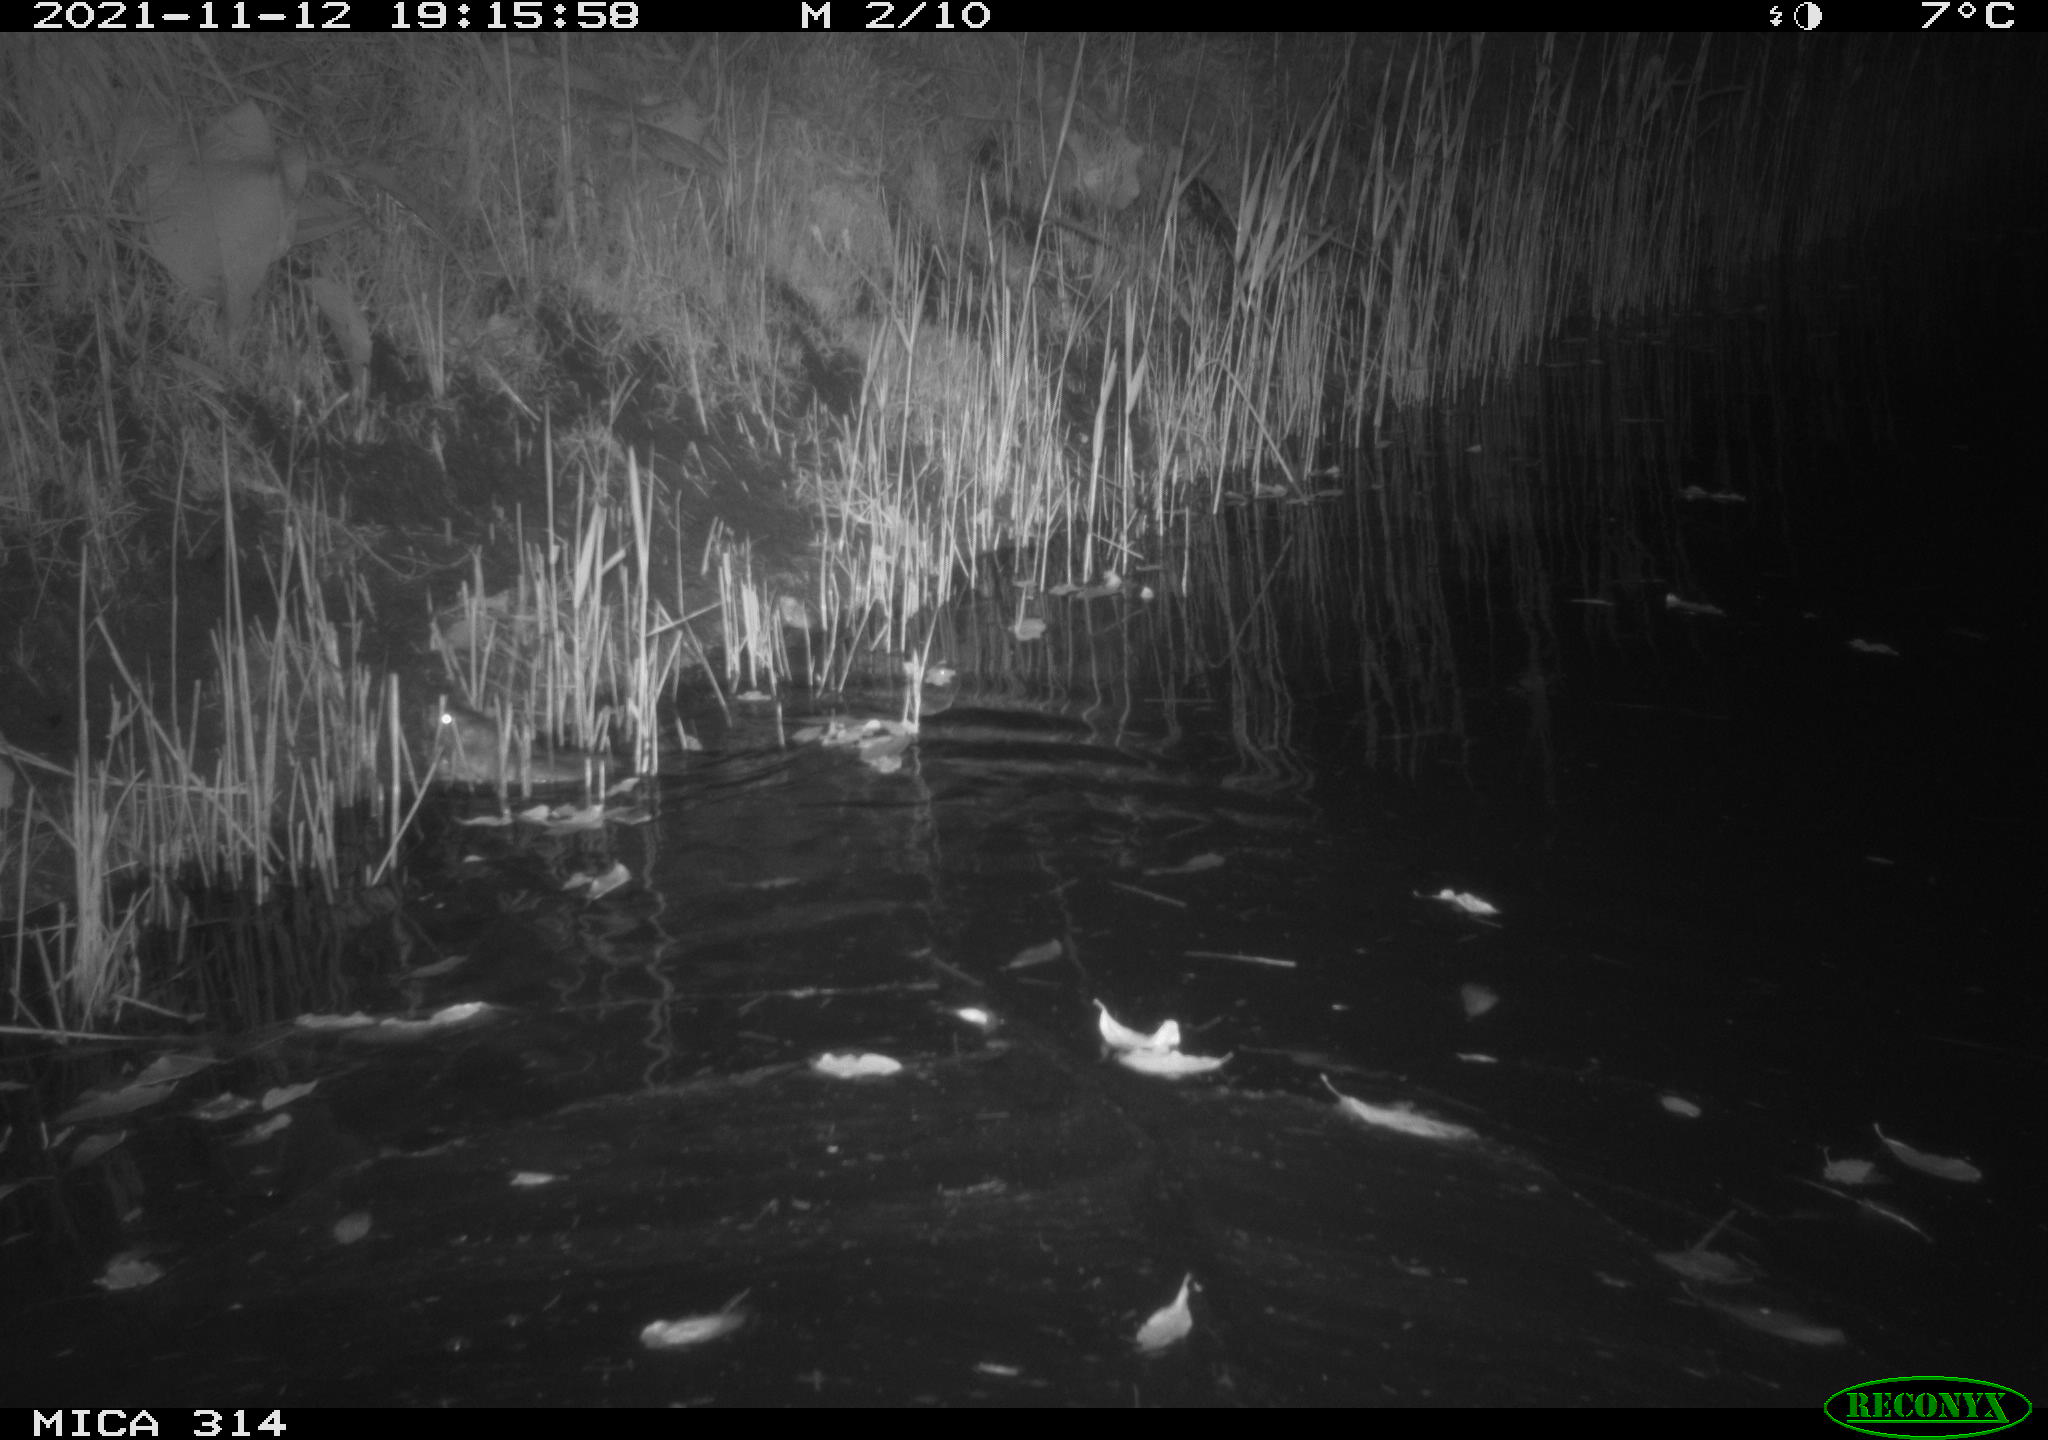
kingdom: Animalia
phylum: Chordata
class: Mammalia
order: Rodentia
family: Muridae
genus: Rattus
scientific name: Rattus norvegicus
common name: Brown rat
